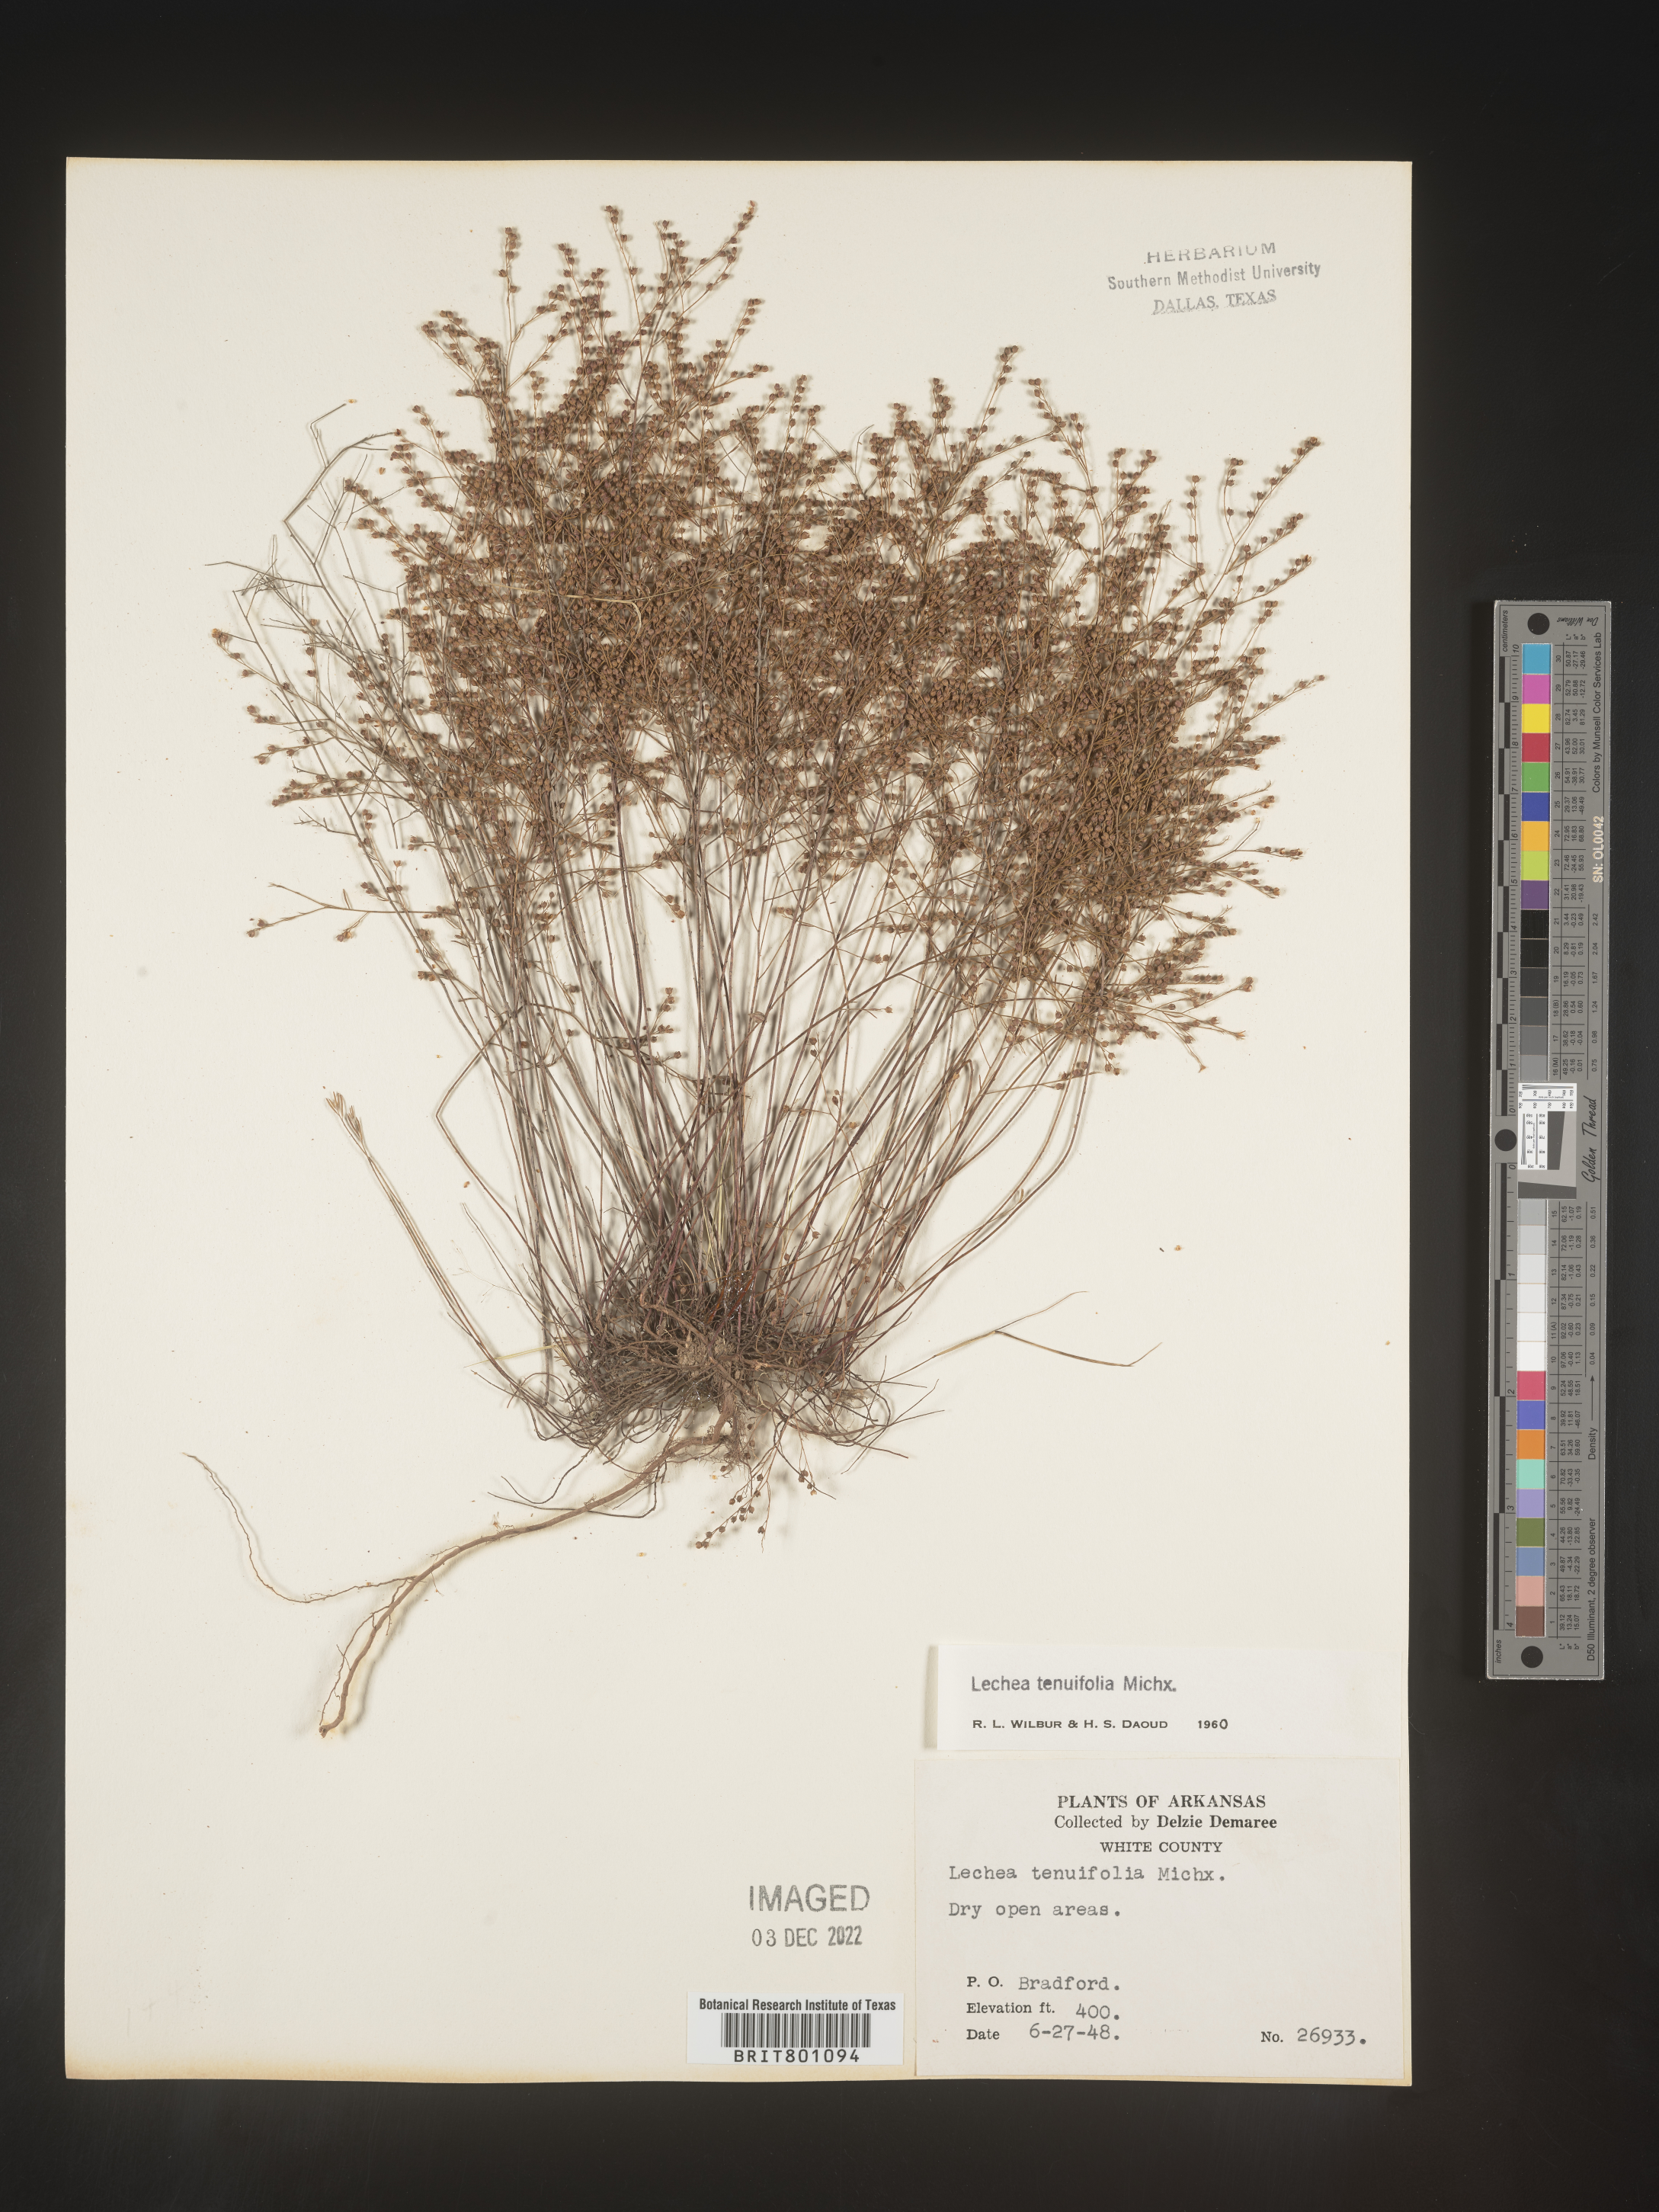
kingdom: Plantae
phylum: Tracheophyta
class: Magnoliopsida
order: Malvales
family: Cistaceae
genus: Lechea
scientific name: Lechea tenuifolia
